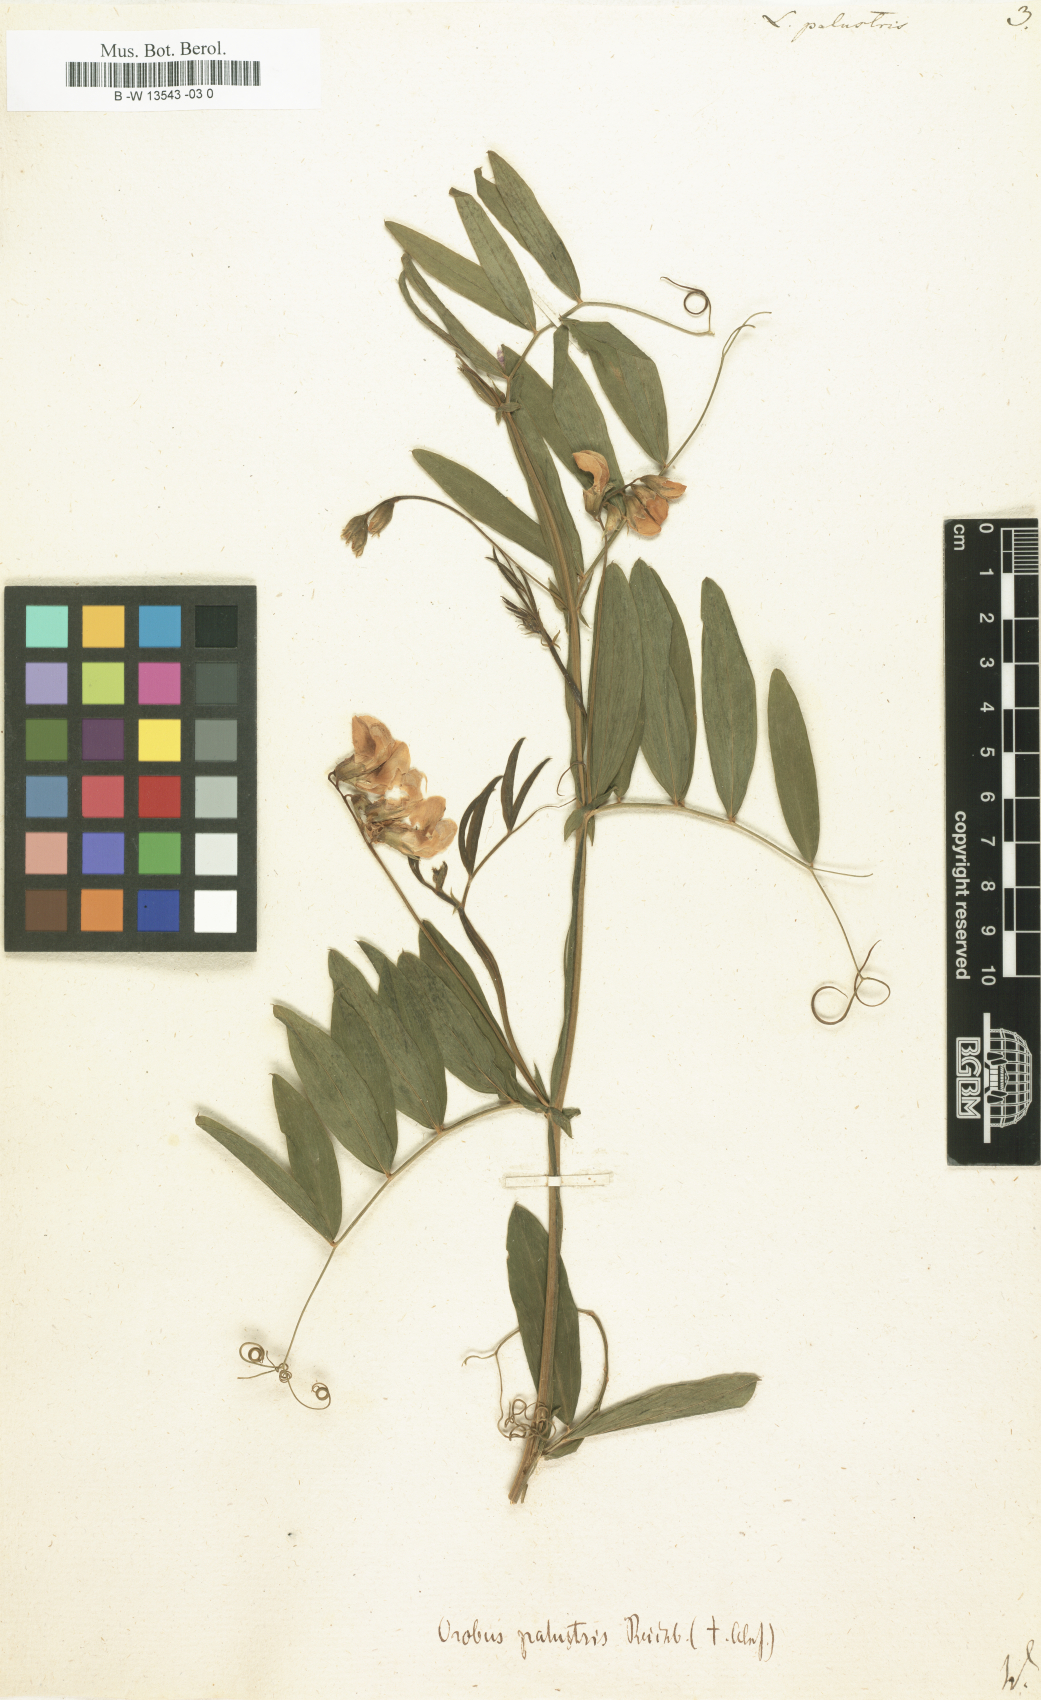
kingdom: Plantae
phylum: Tracheophyta
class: Magnoliopsida
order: Fabales
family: Fabaceae
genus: Lathyrus
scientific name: Lathyrus palustris
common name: Marsh pea
